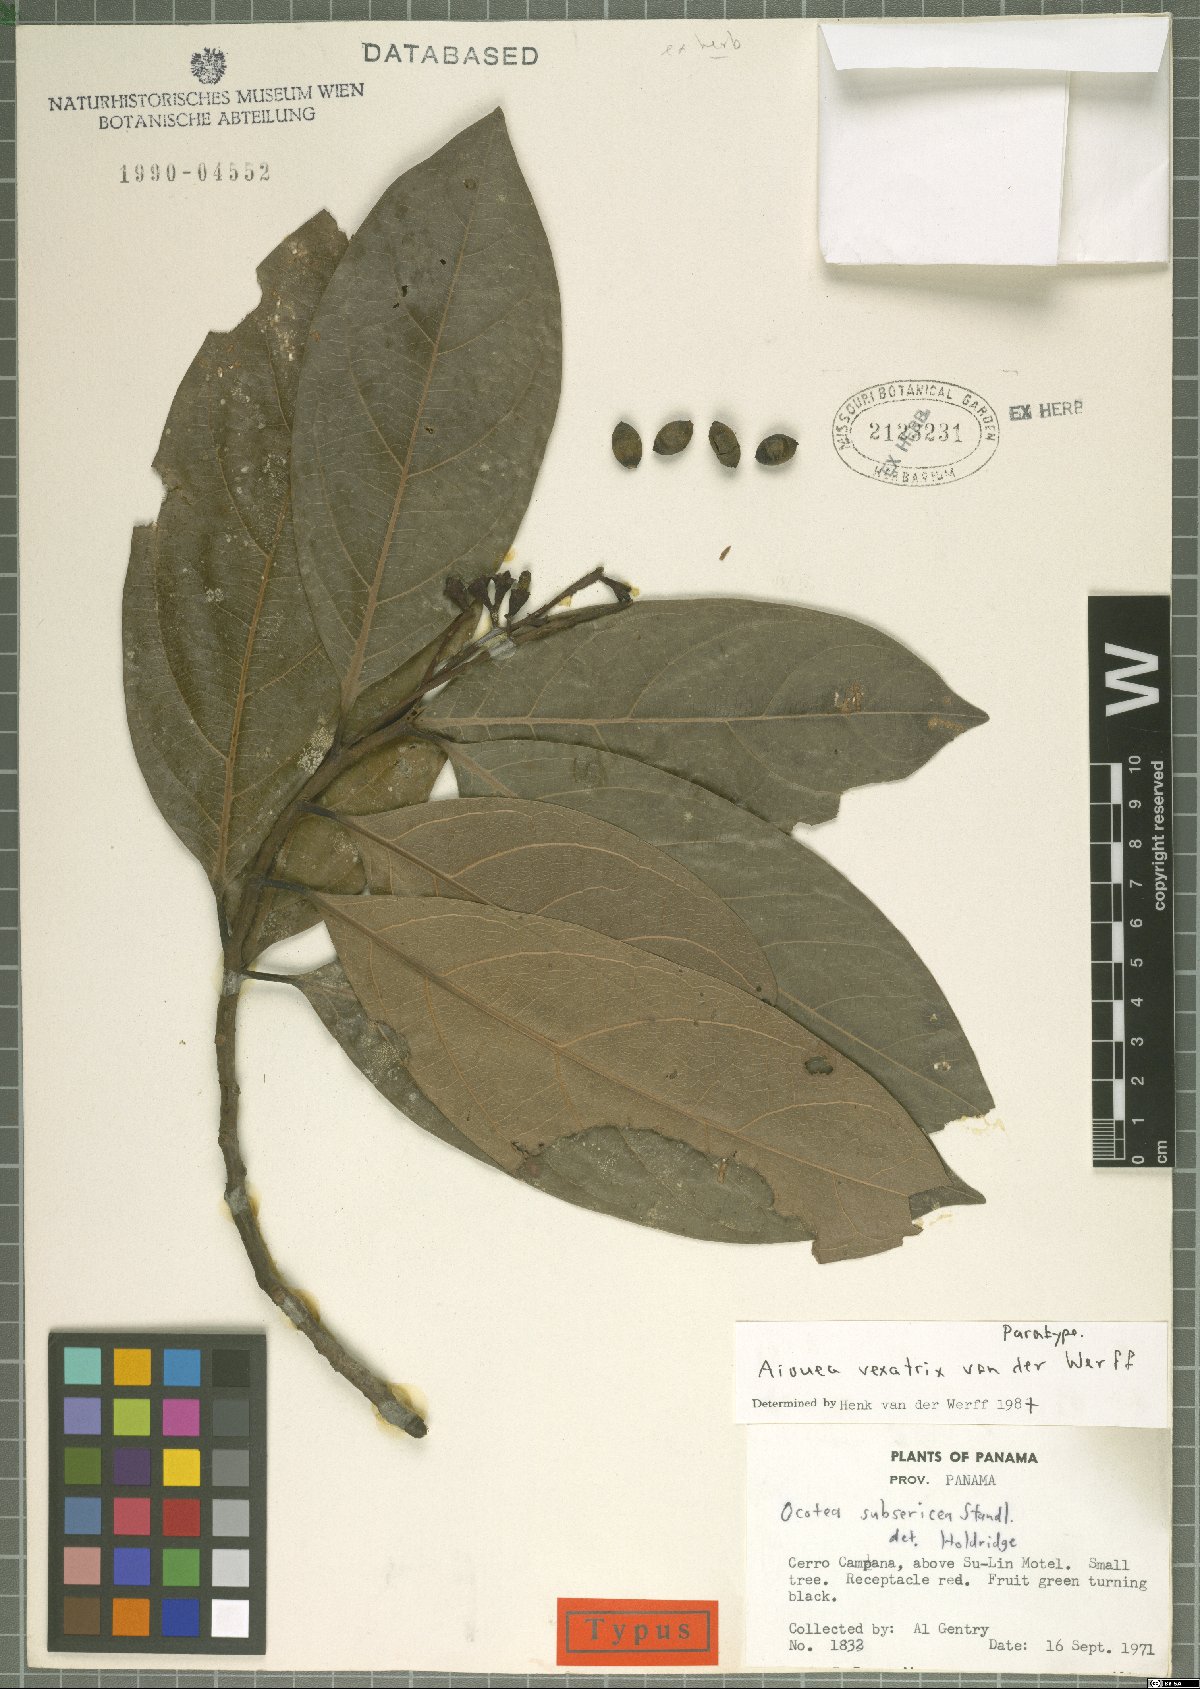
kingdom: Plantae
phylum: Tracheophyta
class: Magnoliopsida
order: Laurales
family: Lauraceae
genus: Ocotea
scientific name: Ocotea insularis
